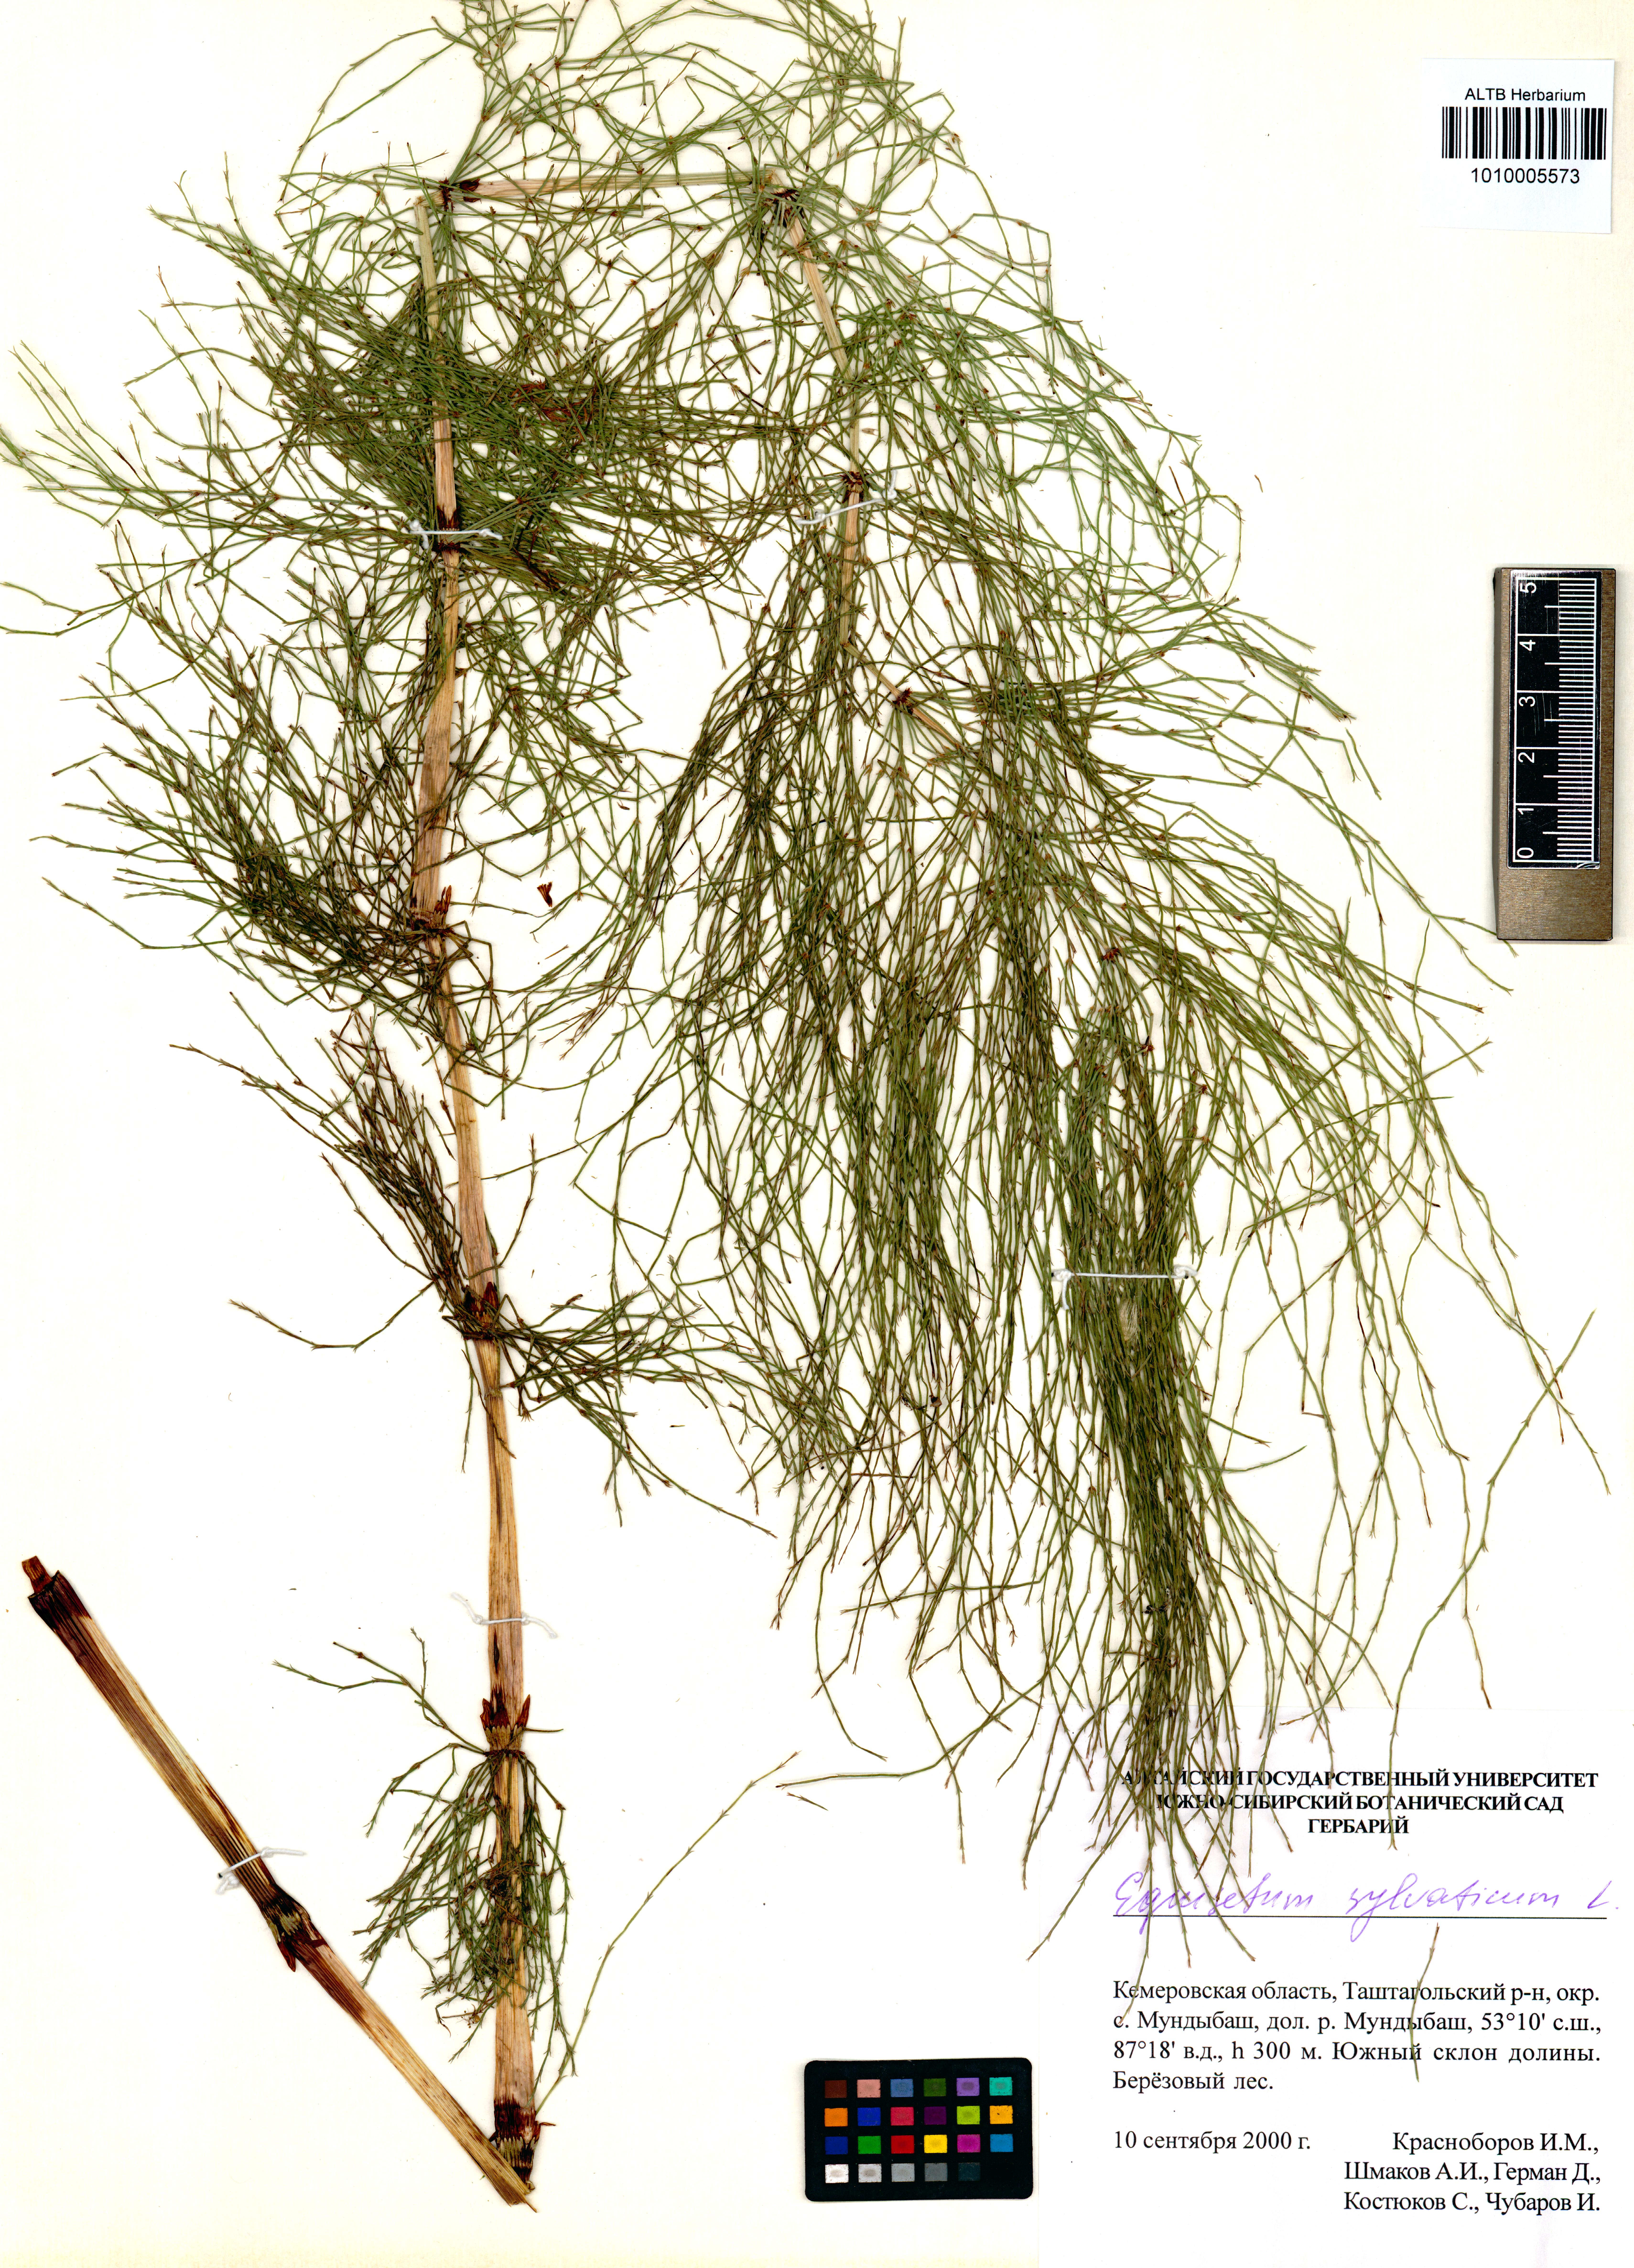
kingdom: Plantae
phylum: Tracheophyta
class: Polypodiopsida
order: Equisetales
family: Equisetaceae
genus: Equisetum
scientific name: Equisetum sylvaticum
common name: Wood horsetail
